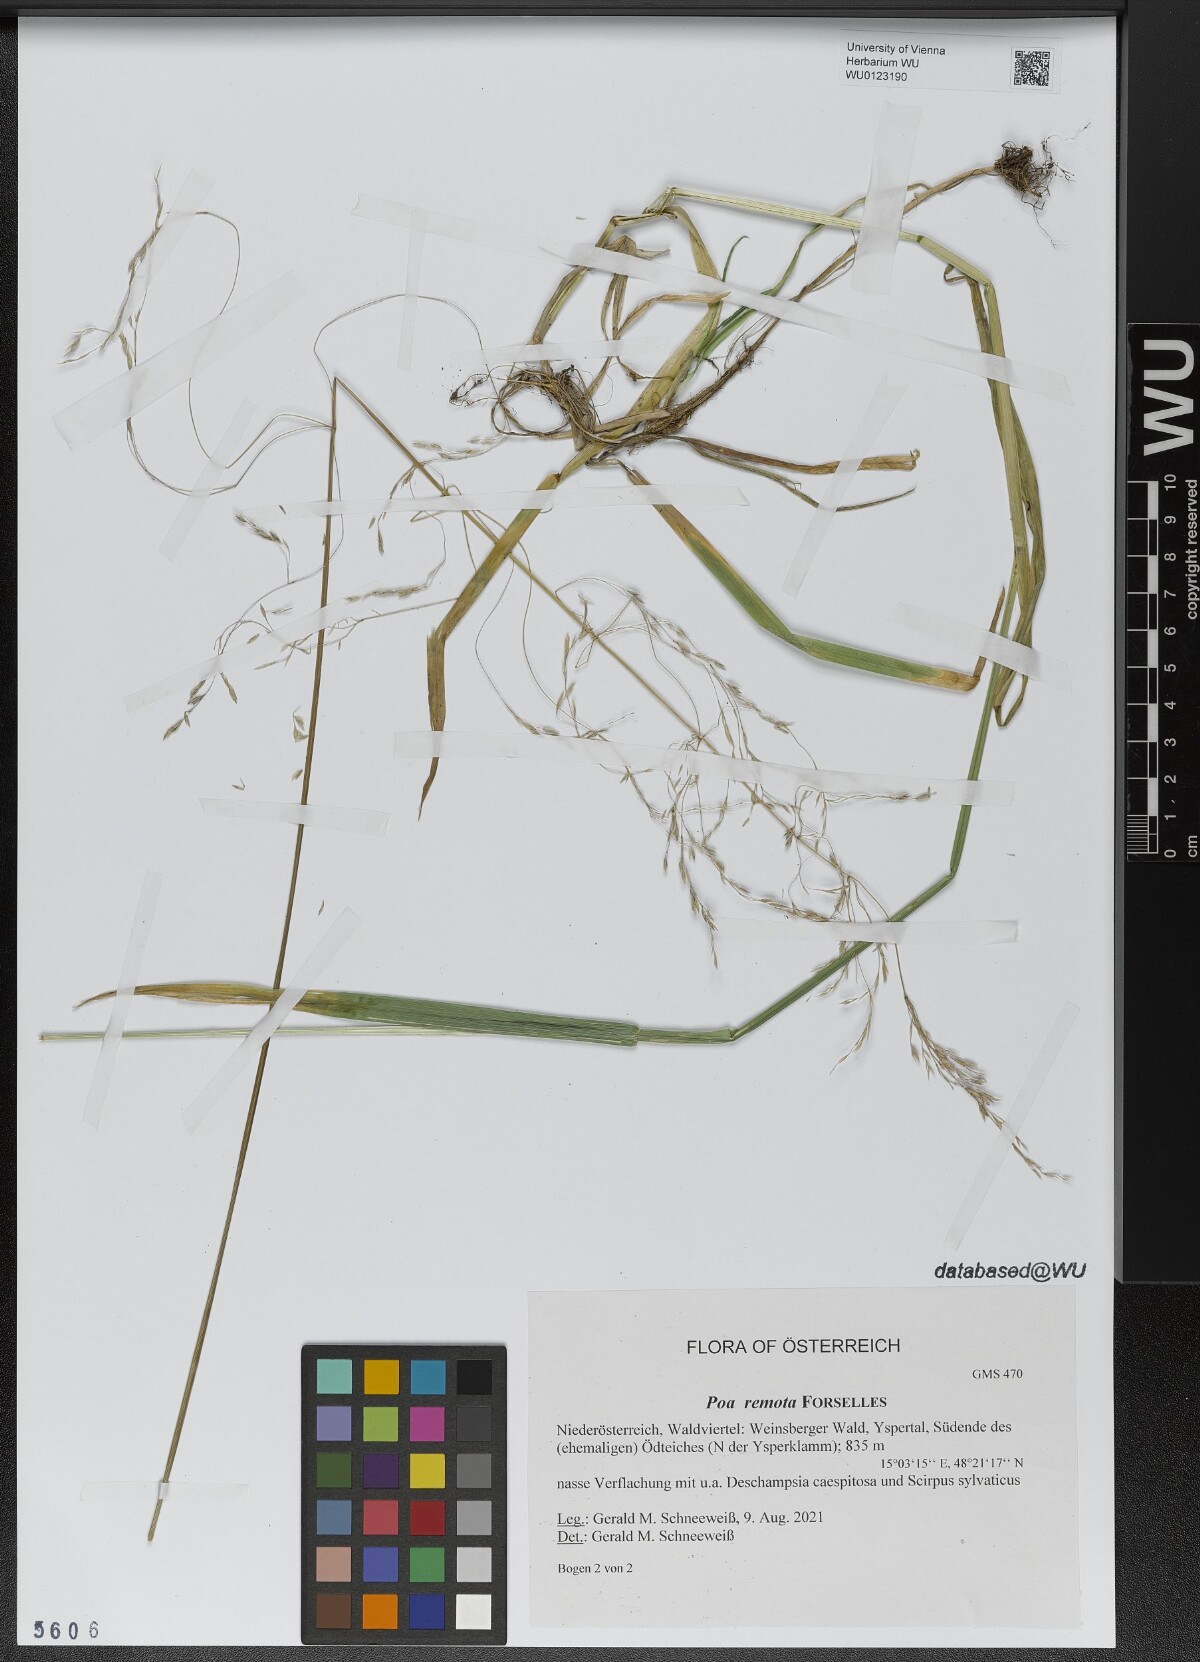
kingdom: Plantae
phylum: Tracheophyta
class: Liliopsida
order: Poales
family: Poaceae
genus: Poa
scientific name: Poa remota
